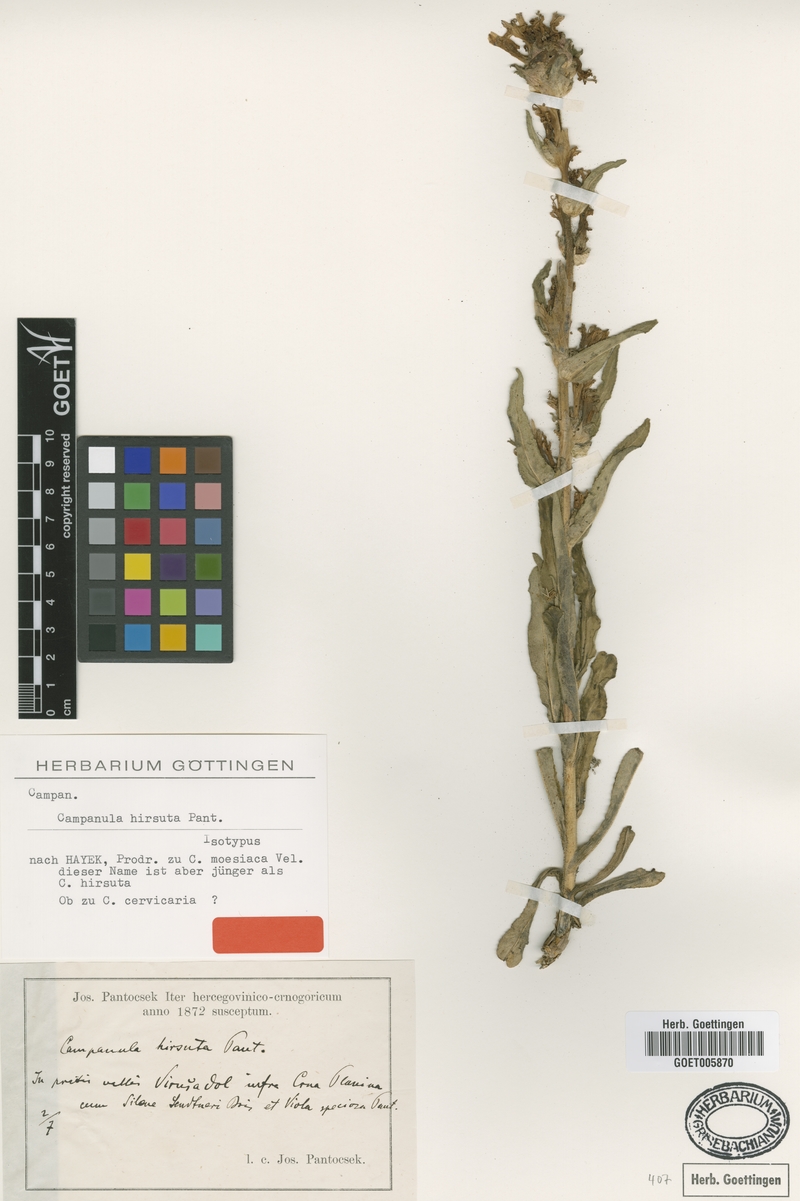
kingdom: Plantae
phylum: Tracheophyta
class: Magnoliopsida
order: Asterales
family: Campanulaceae
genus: Campanula
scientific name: Campanula hirsuta
